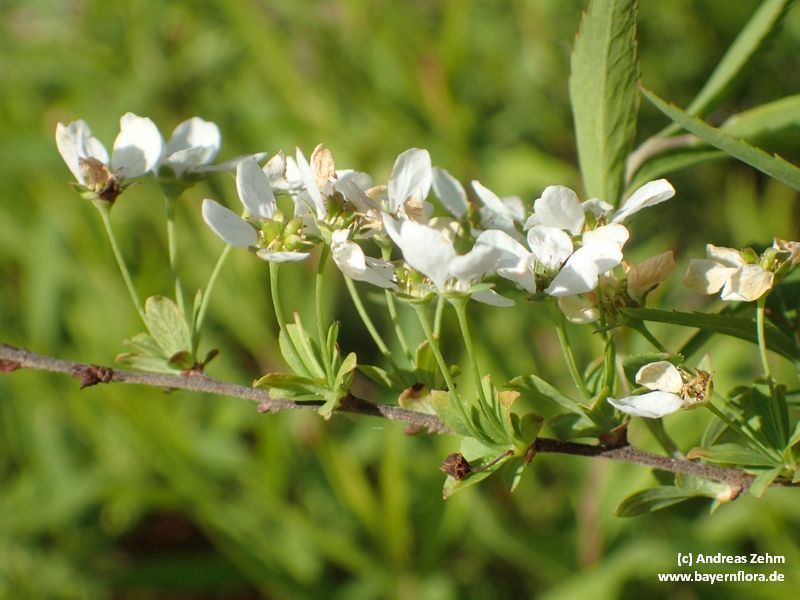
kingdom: Plantae
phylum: Tracheophyta
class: Magnoliopsida
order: Rosales
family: Rosaceae
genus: Spiraea
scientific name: Spiraea arguta
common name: Garland spiraea
